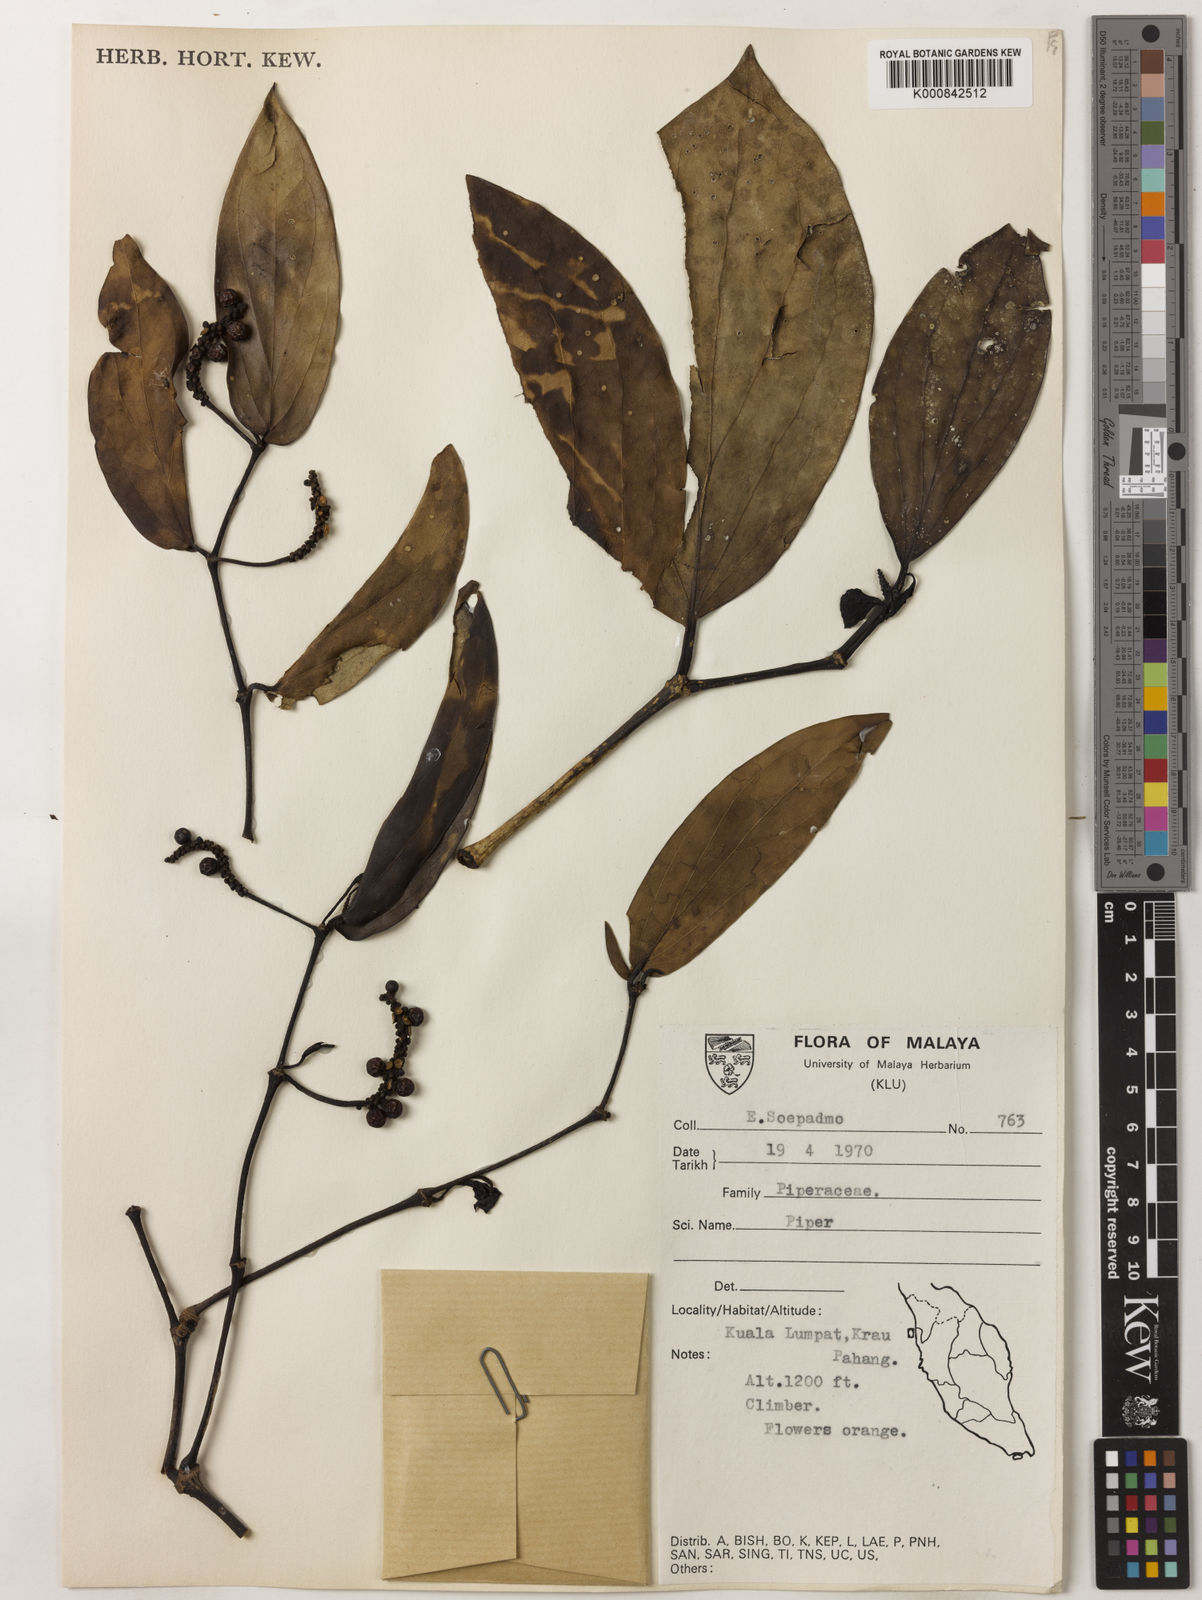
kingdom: Plantae
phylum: Tracheophyta
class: Magnoliopsida
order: Piperales
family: Piperaceae
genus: Piper
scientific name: Piper
